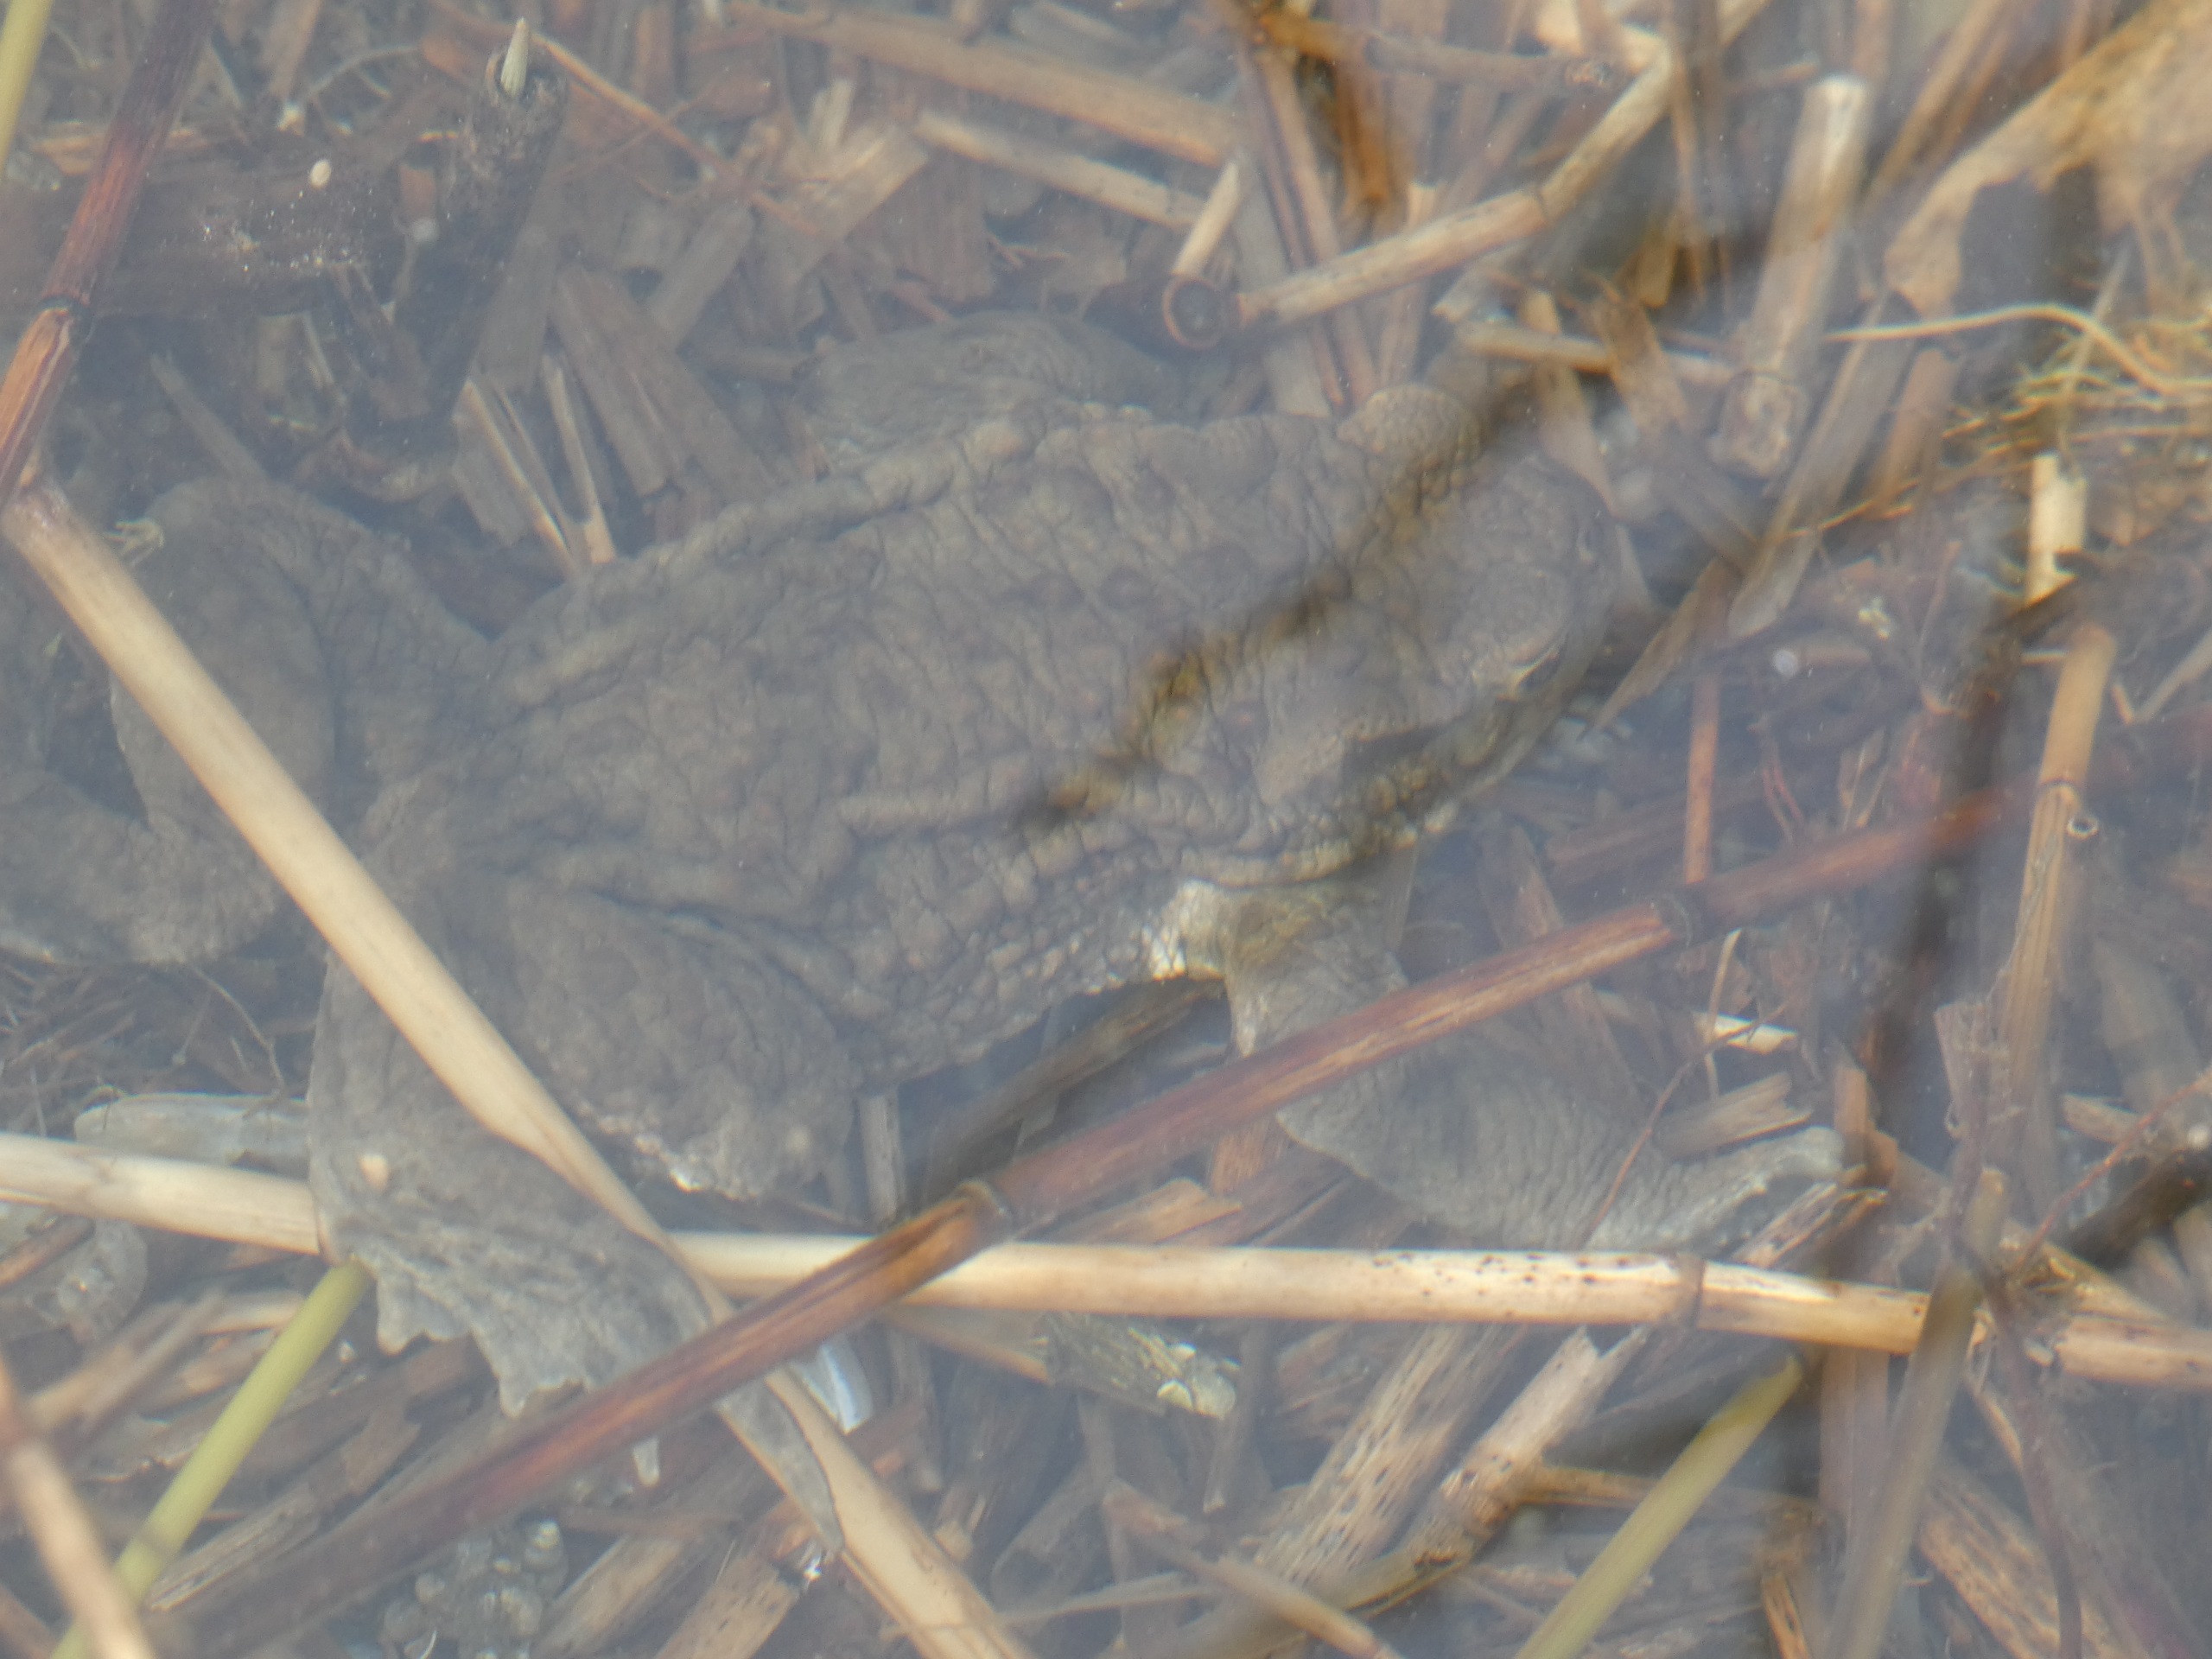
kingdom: Animalia
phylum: Chordata
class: Amphibia
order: Anura
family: Bufonidae
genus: Bufo
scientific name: Bufo bufo
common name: Skrubtudse
